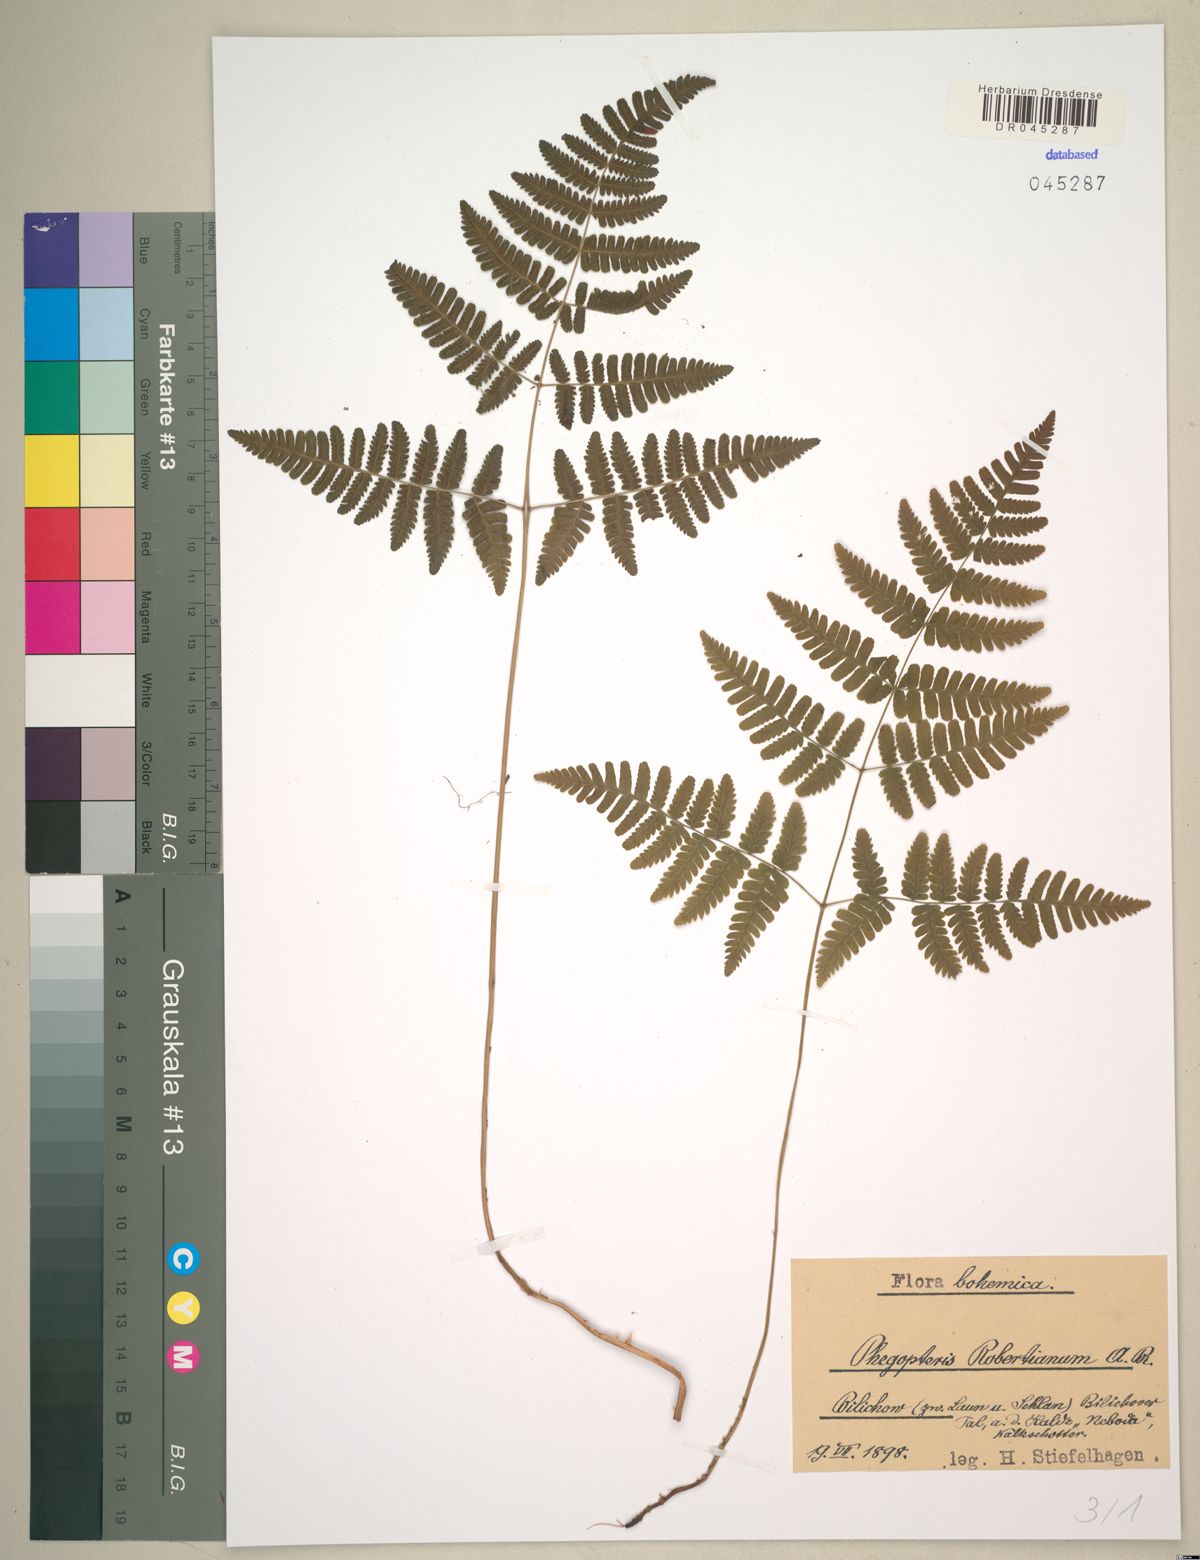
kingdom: Plantae
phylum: Tracheophyta
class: Polypodiopsida
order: Polypodiales
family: Cystopteridaceae
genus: Gymnocarpium
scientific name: Gymnocarpium robertianum
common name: Limestone fern
